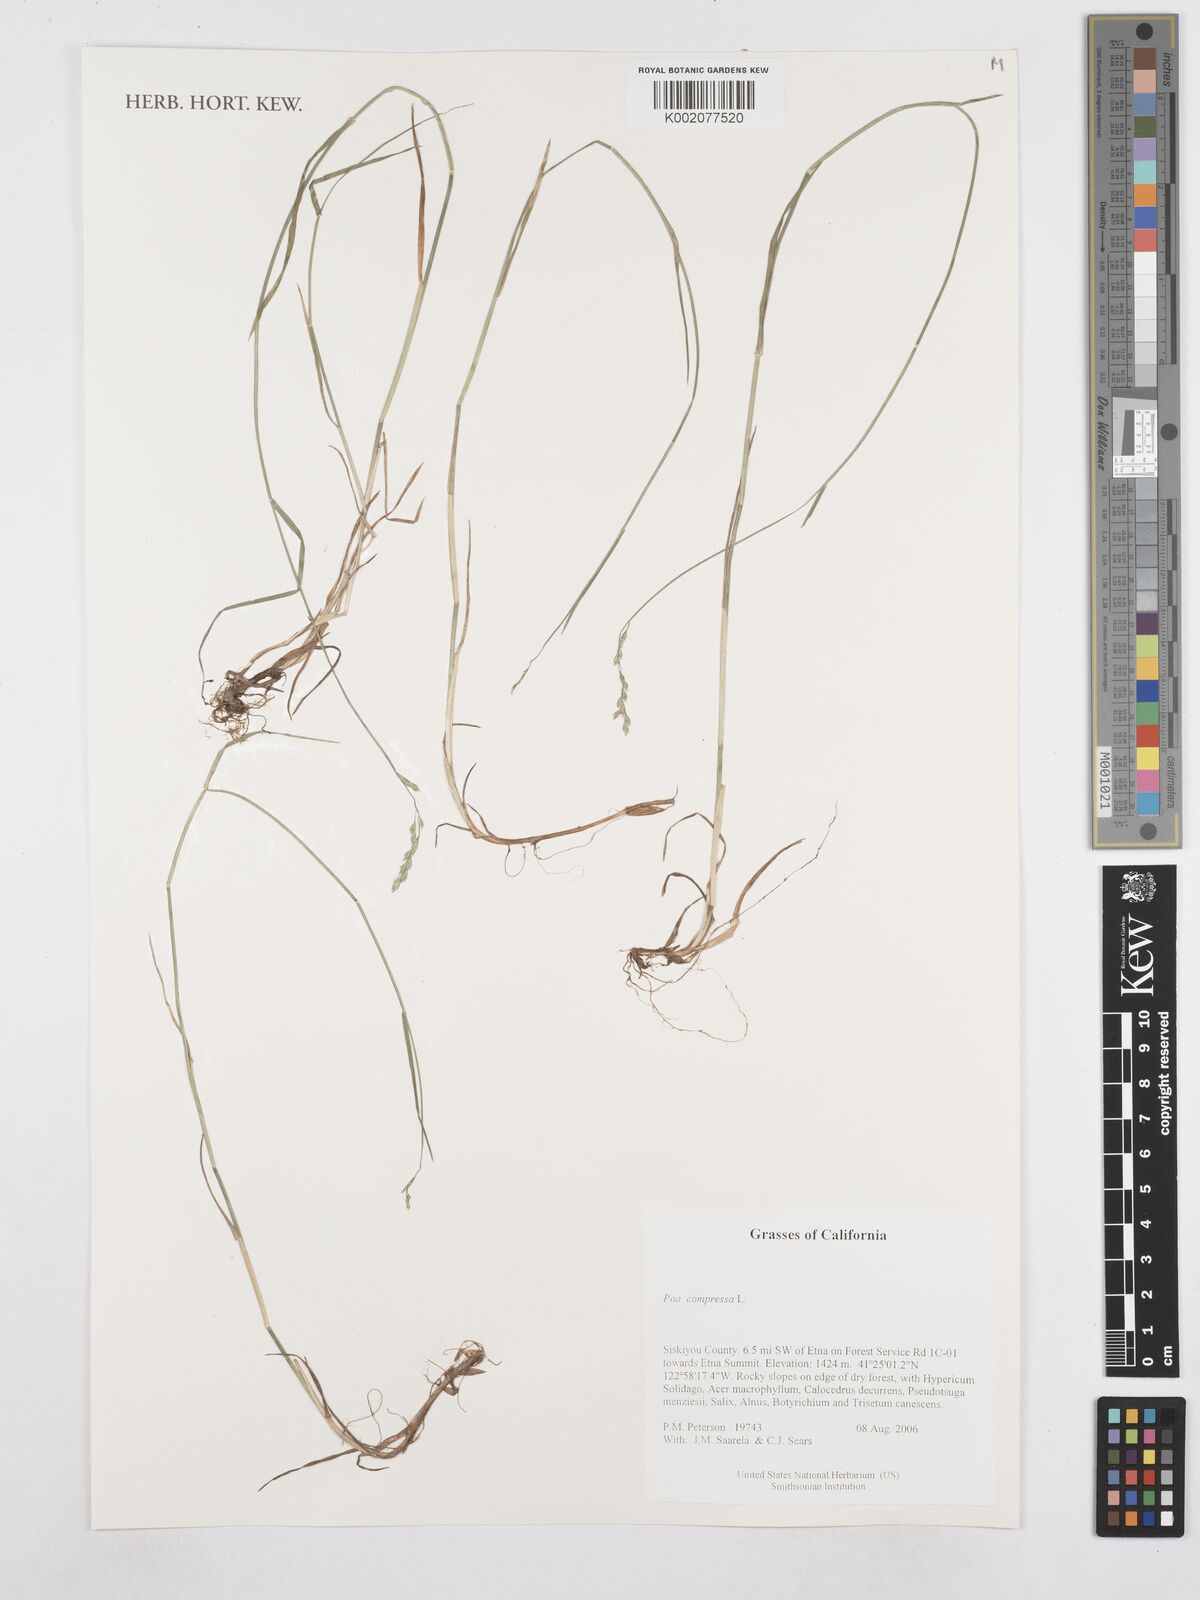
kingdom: Plantae
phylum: Tracheophyta
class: Liliopsida
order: Poales
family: Poaceae
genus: Poa
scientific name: Poa compressa
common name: Canada bluegrass
